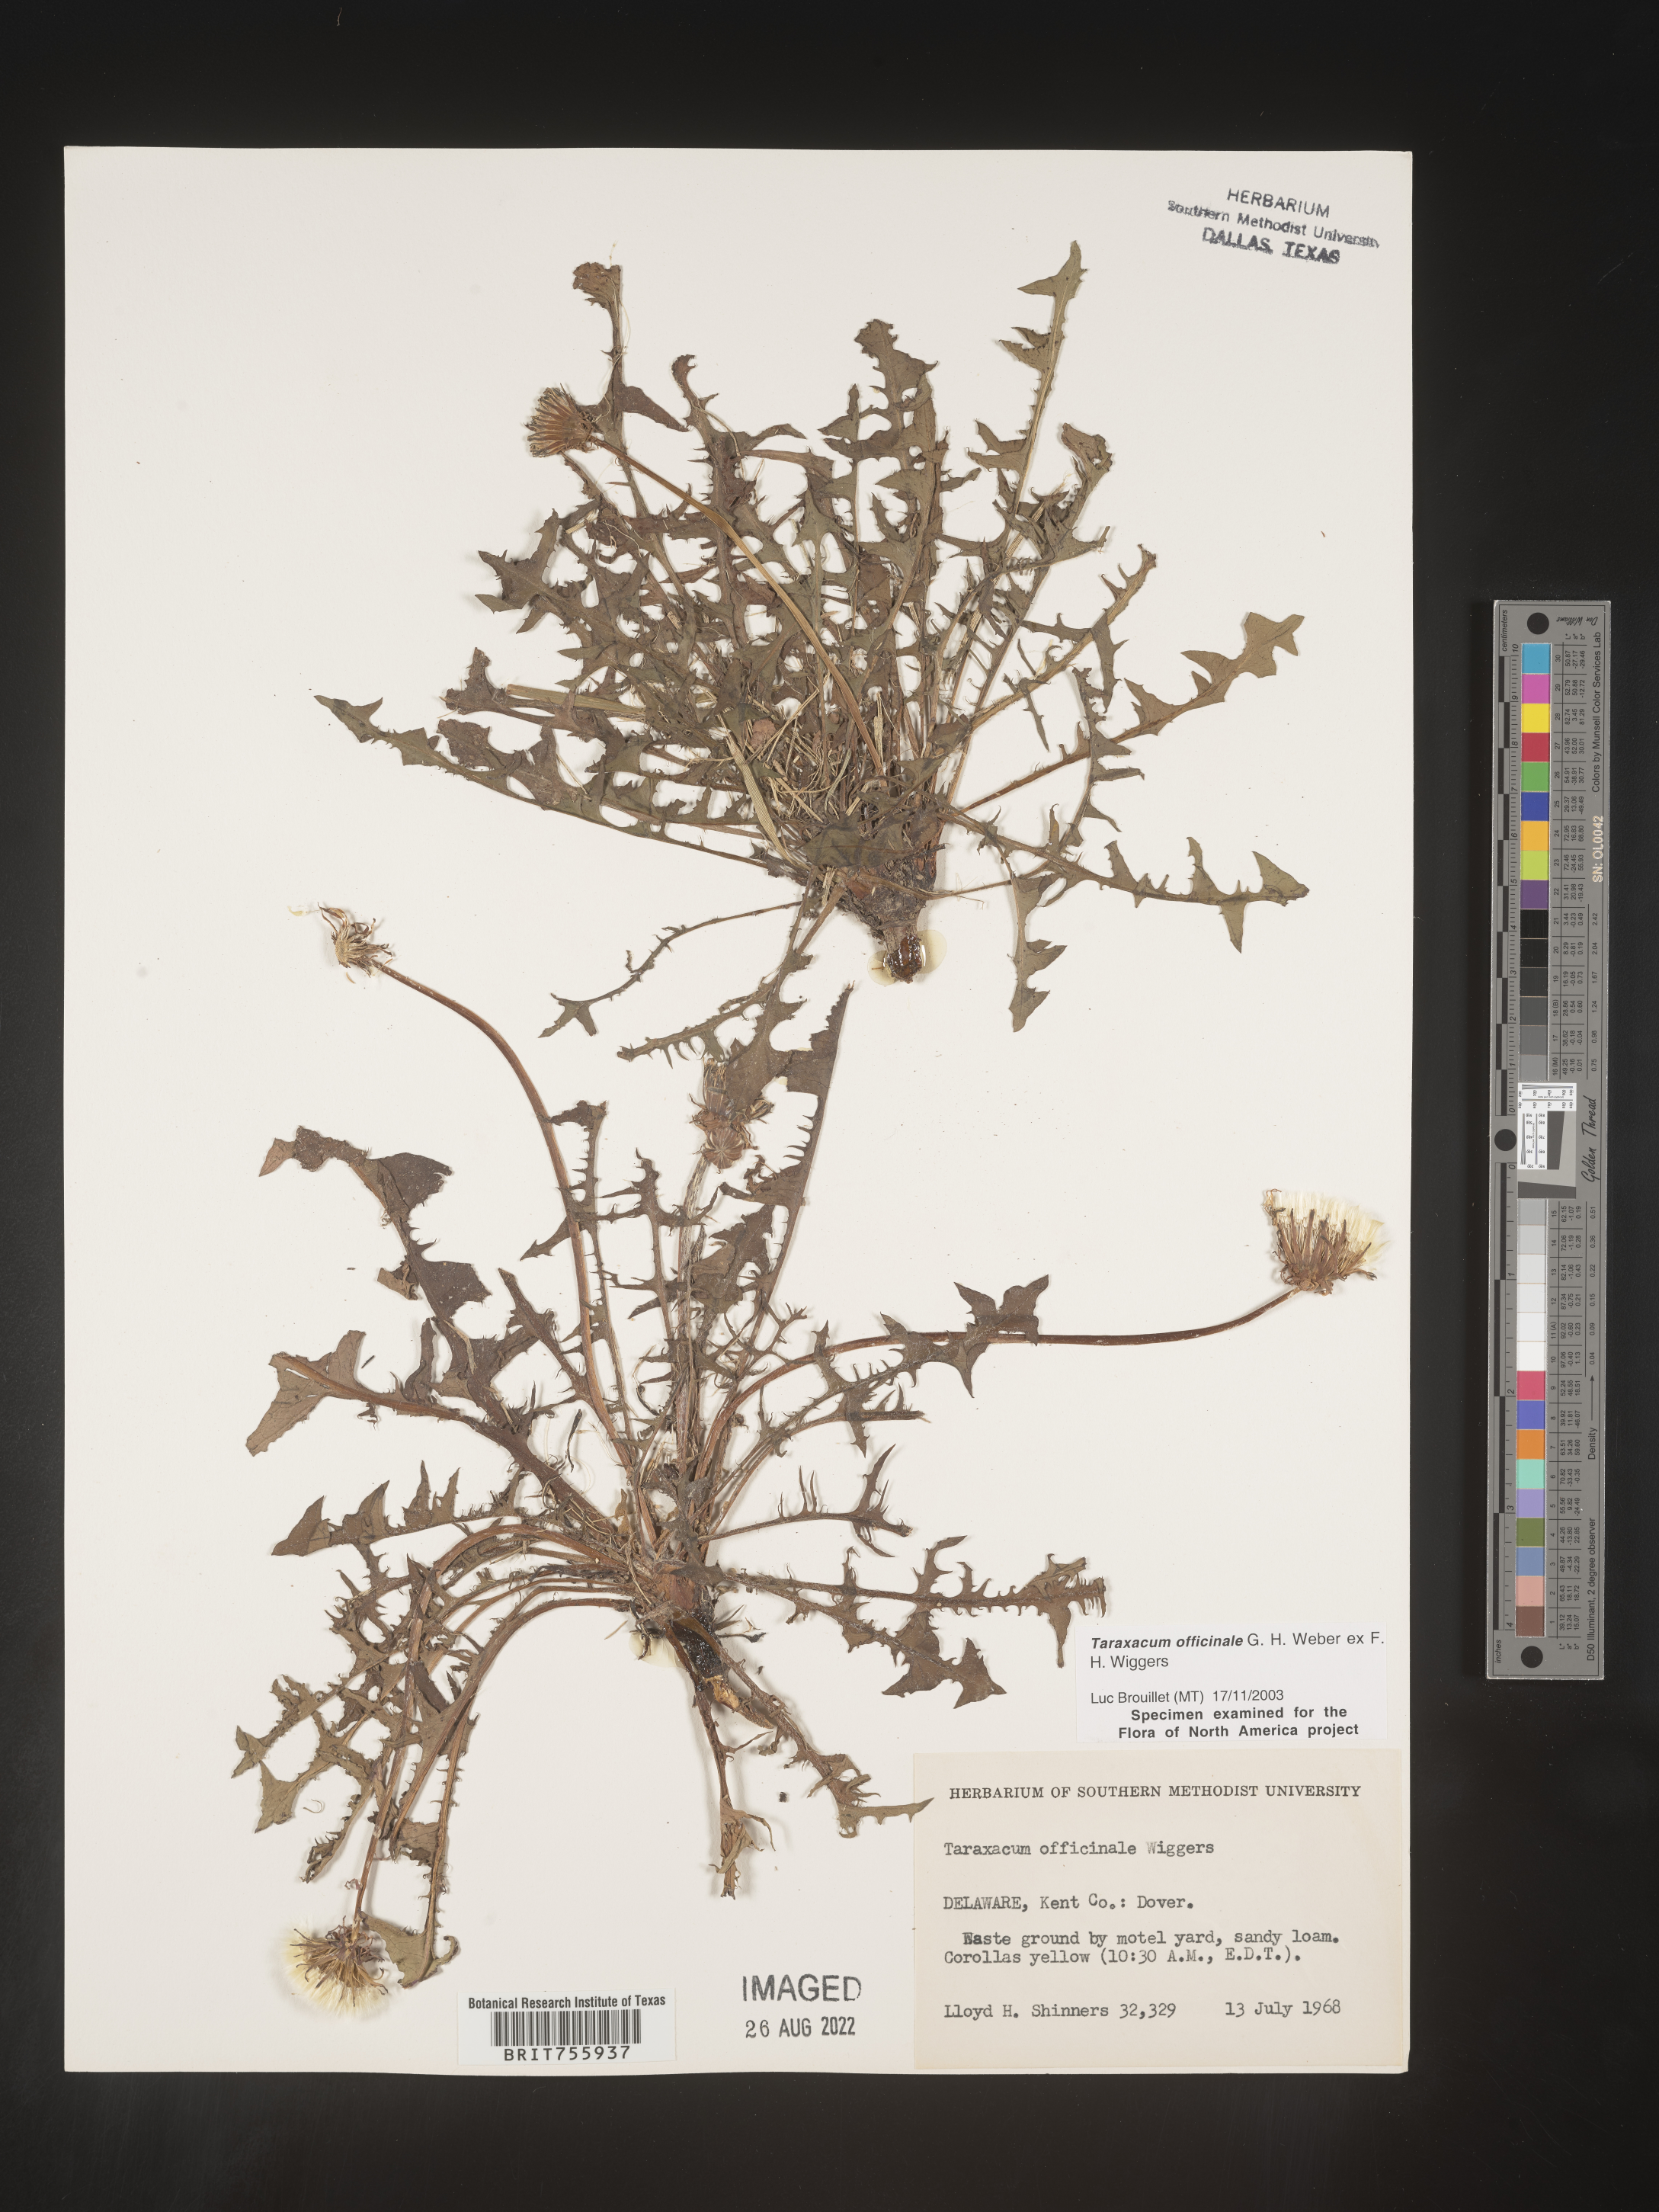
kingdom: Plantae
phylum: Tracheophyta
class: Magnoliopsida
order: Asterales
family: Asteraceae
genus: Taraxacum
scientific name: Taraxacum officinale
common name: Common dandelion
